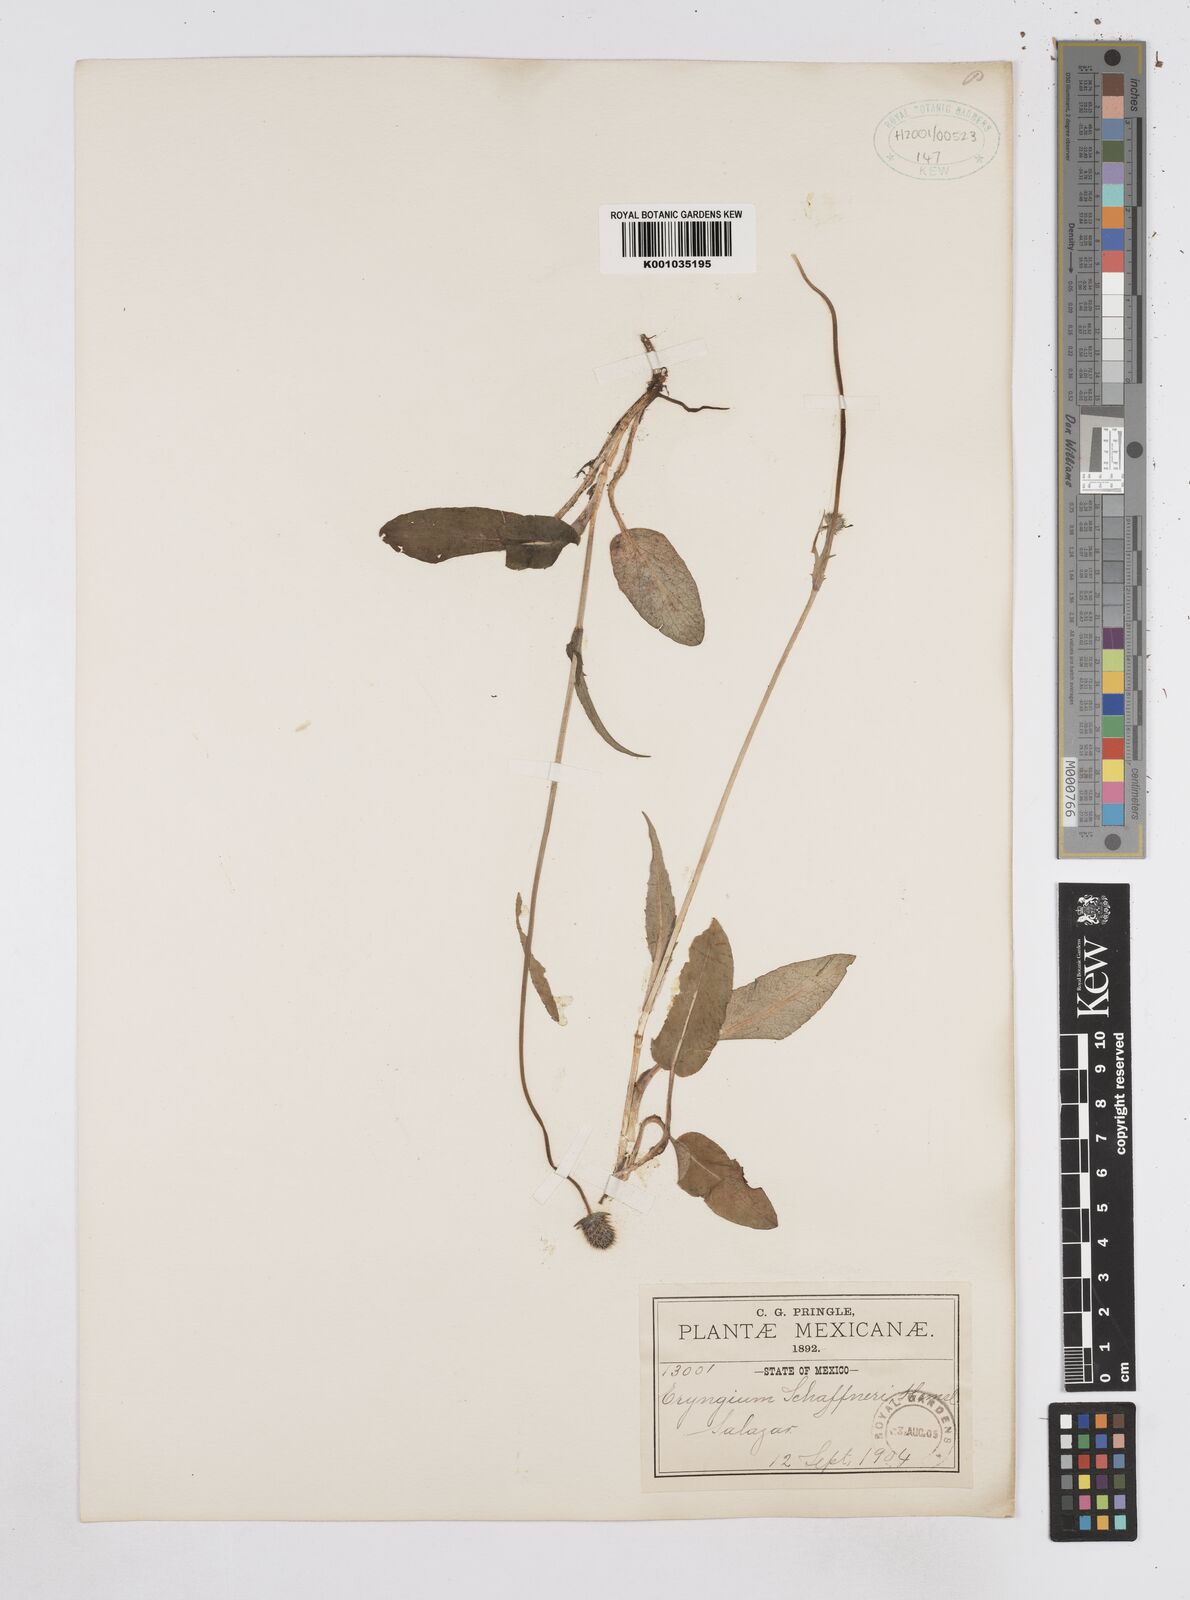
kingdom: Plantae
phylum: Tracheophyta
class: Magnoliopsida
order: Apiales
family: Apiaceae
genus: Eryngium
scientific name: Eryngium bonplandii
